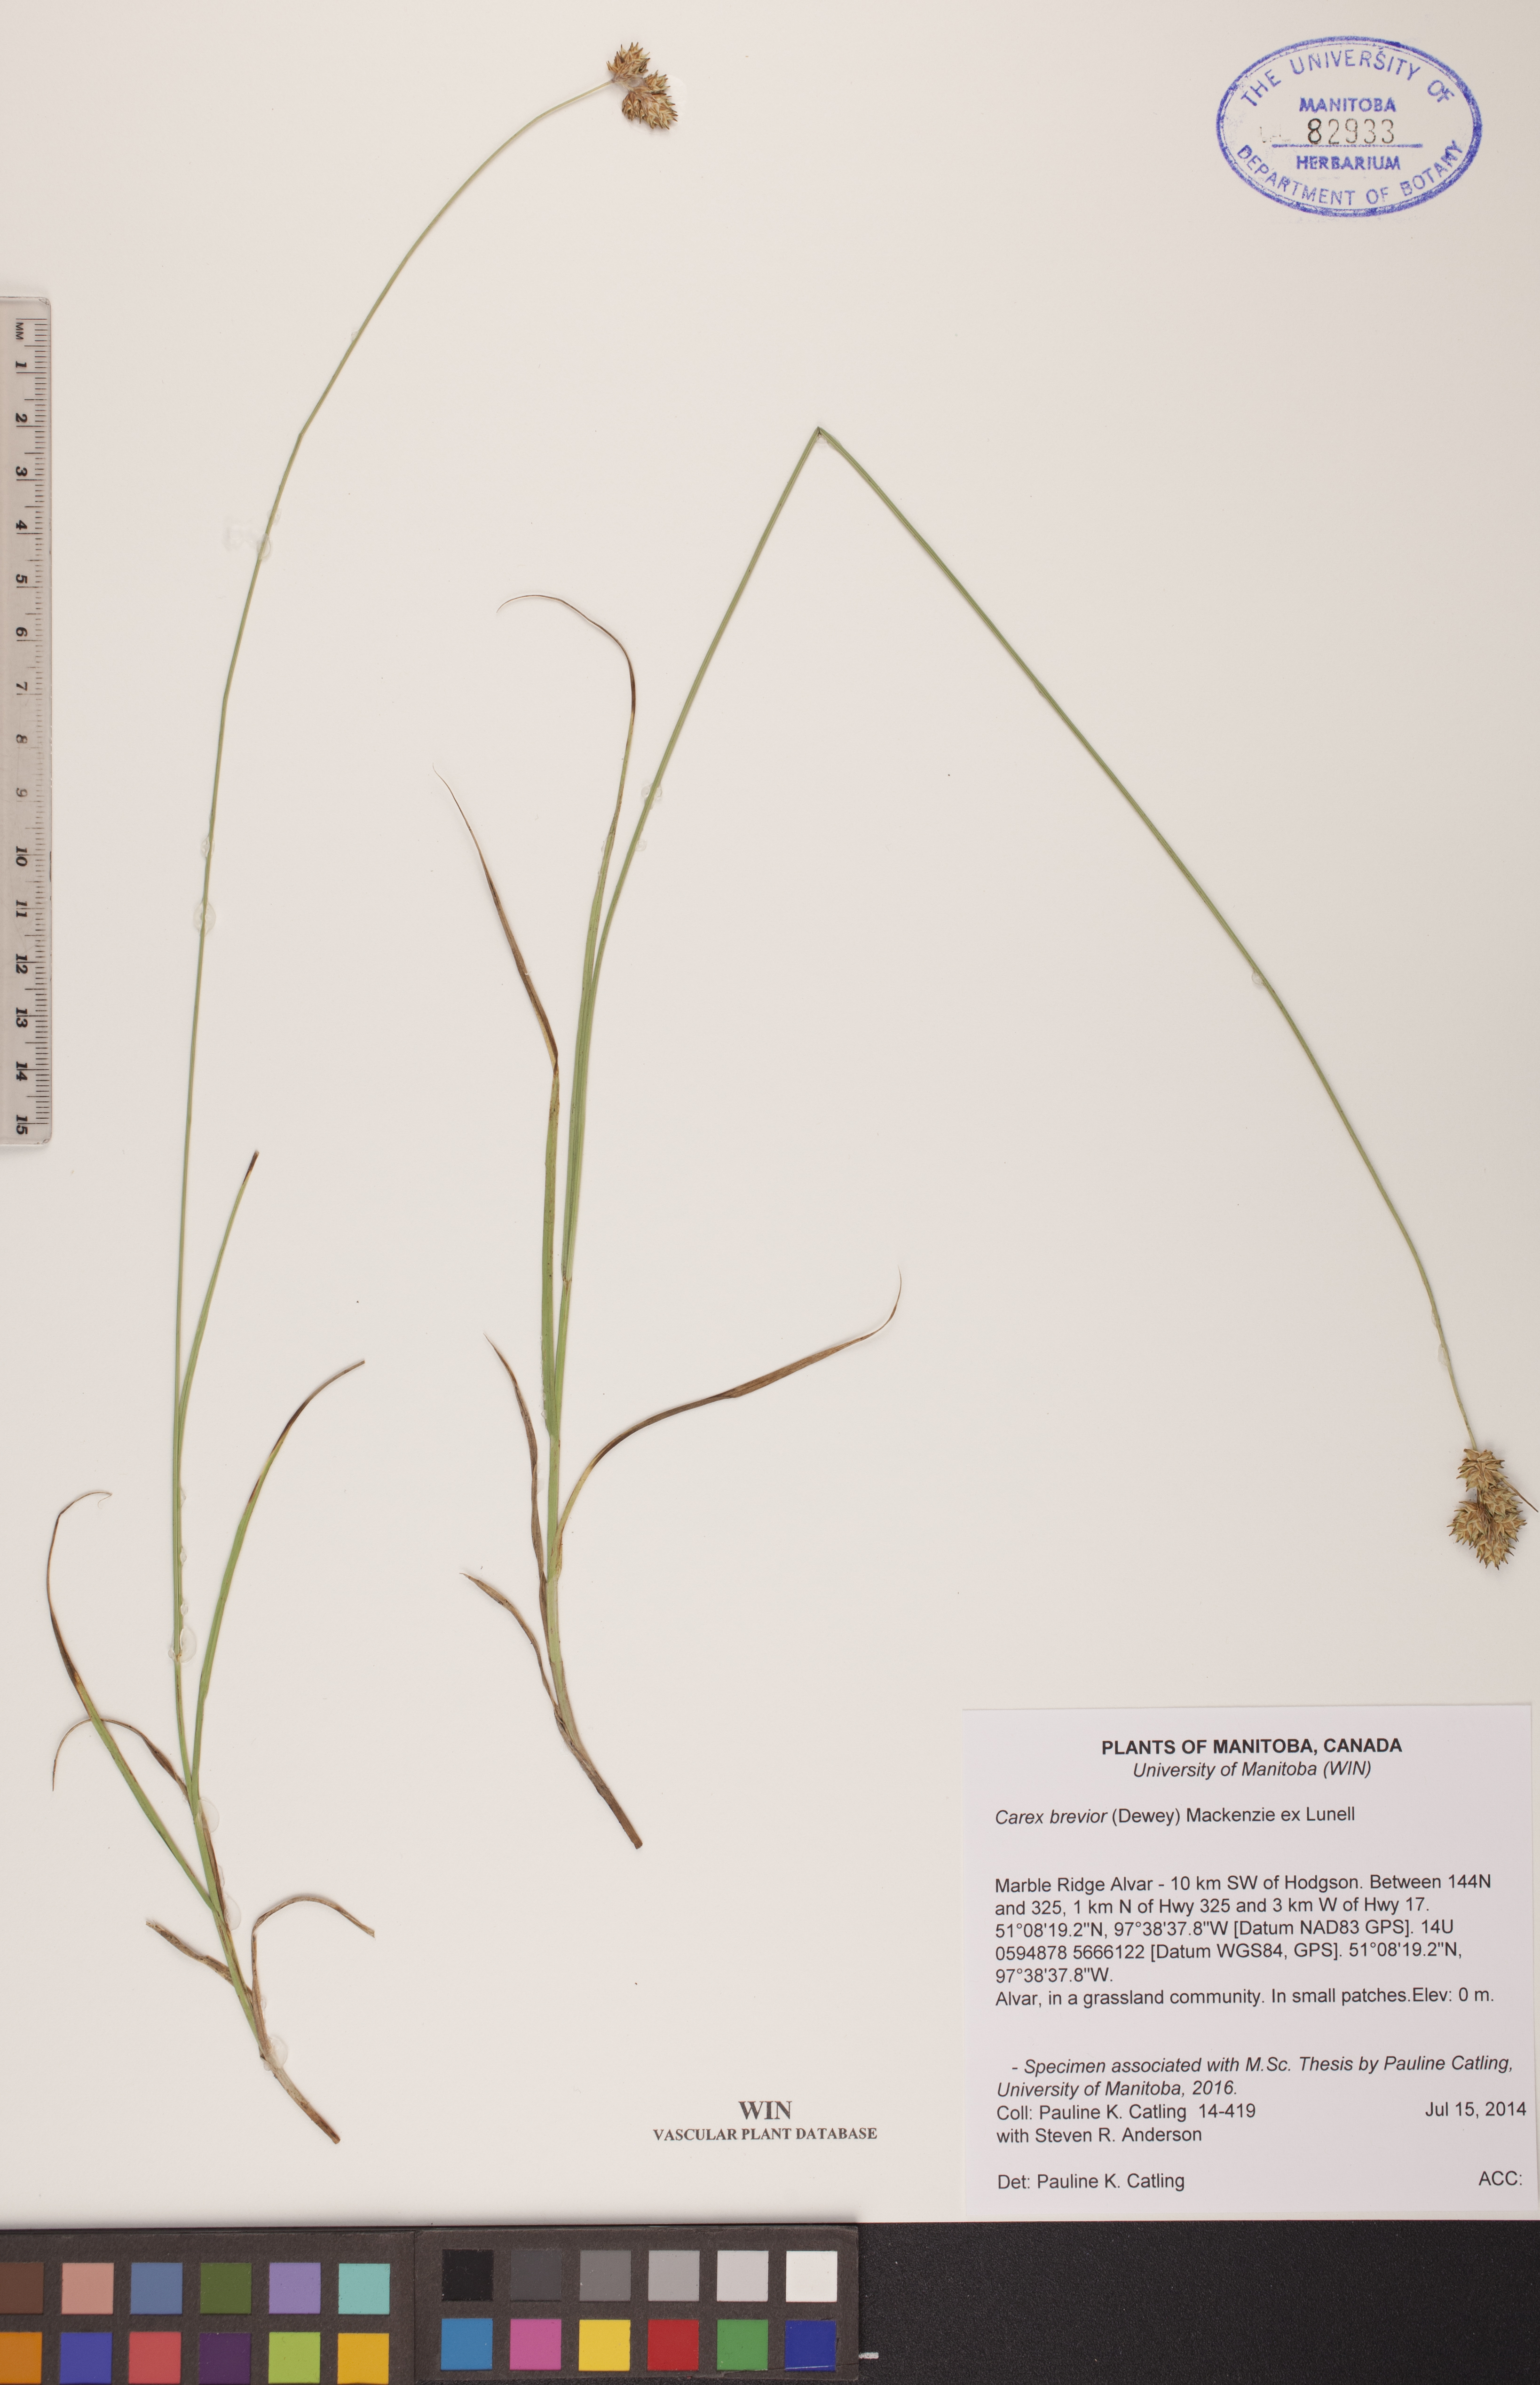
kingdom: Plantae
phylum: Tracheophyta
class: Liliopsida
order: Poales
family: Cyperaceae
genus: Carex
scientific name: Carex brevior
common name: Brevior sedge
